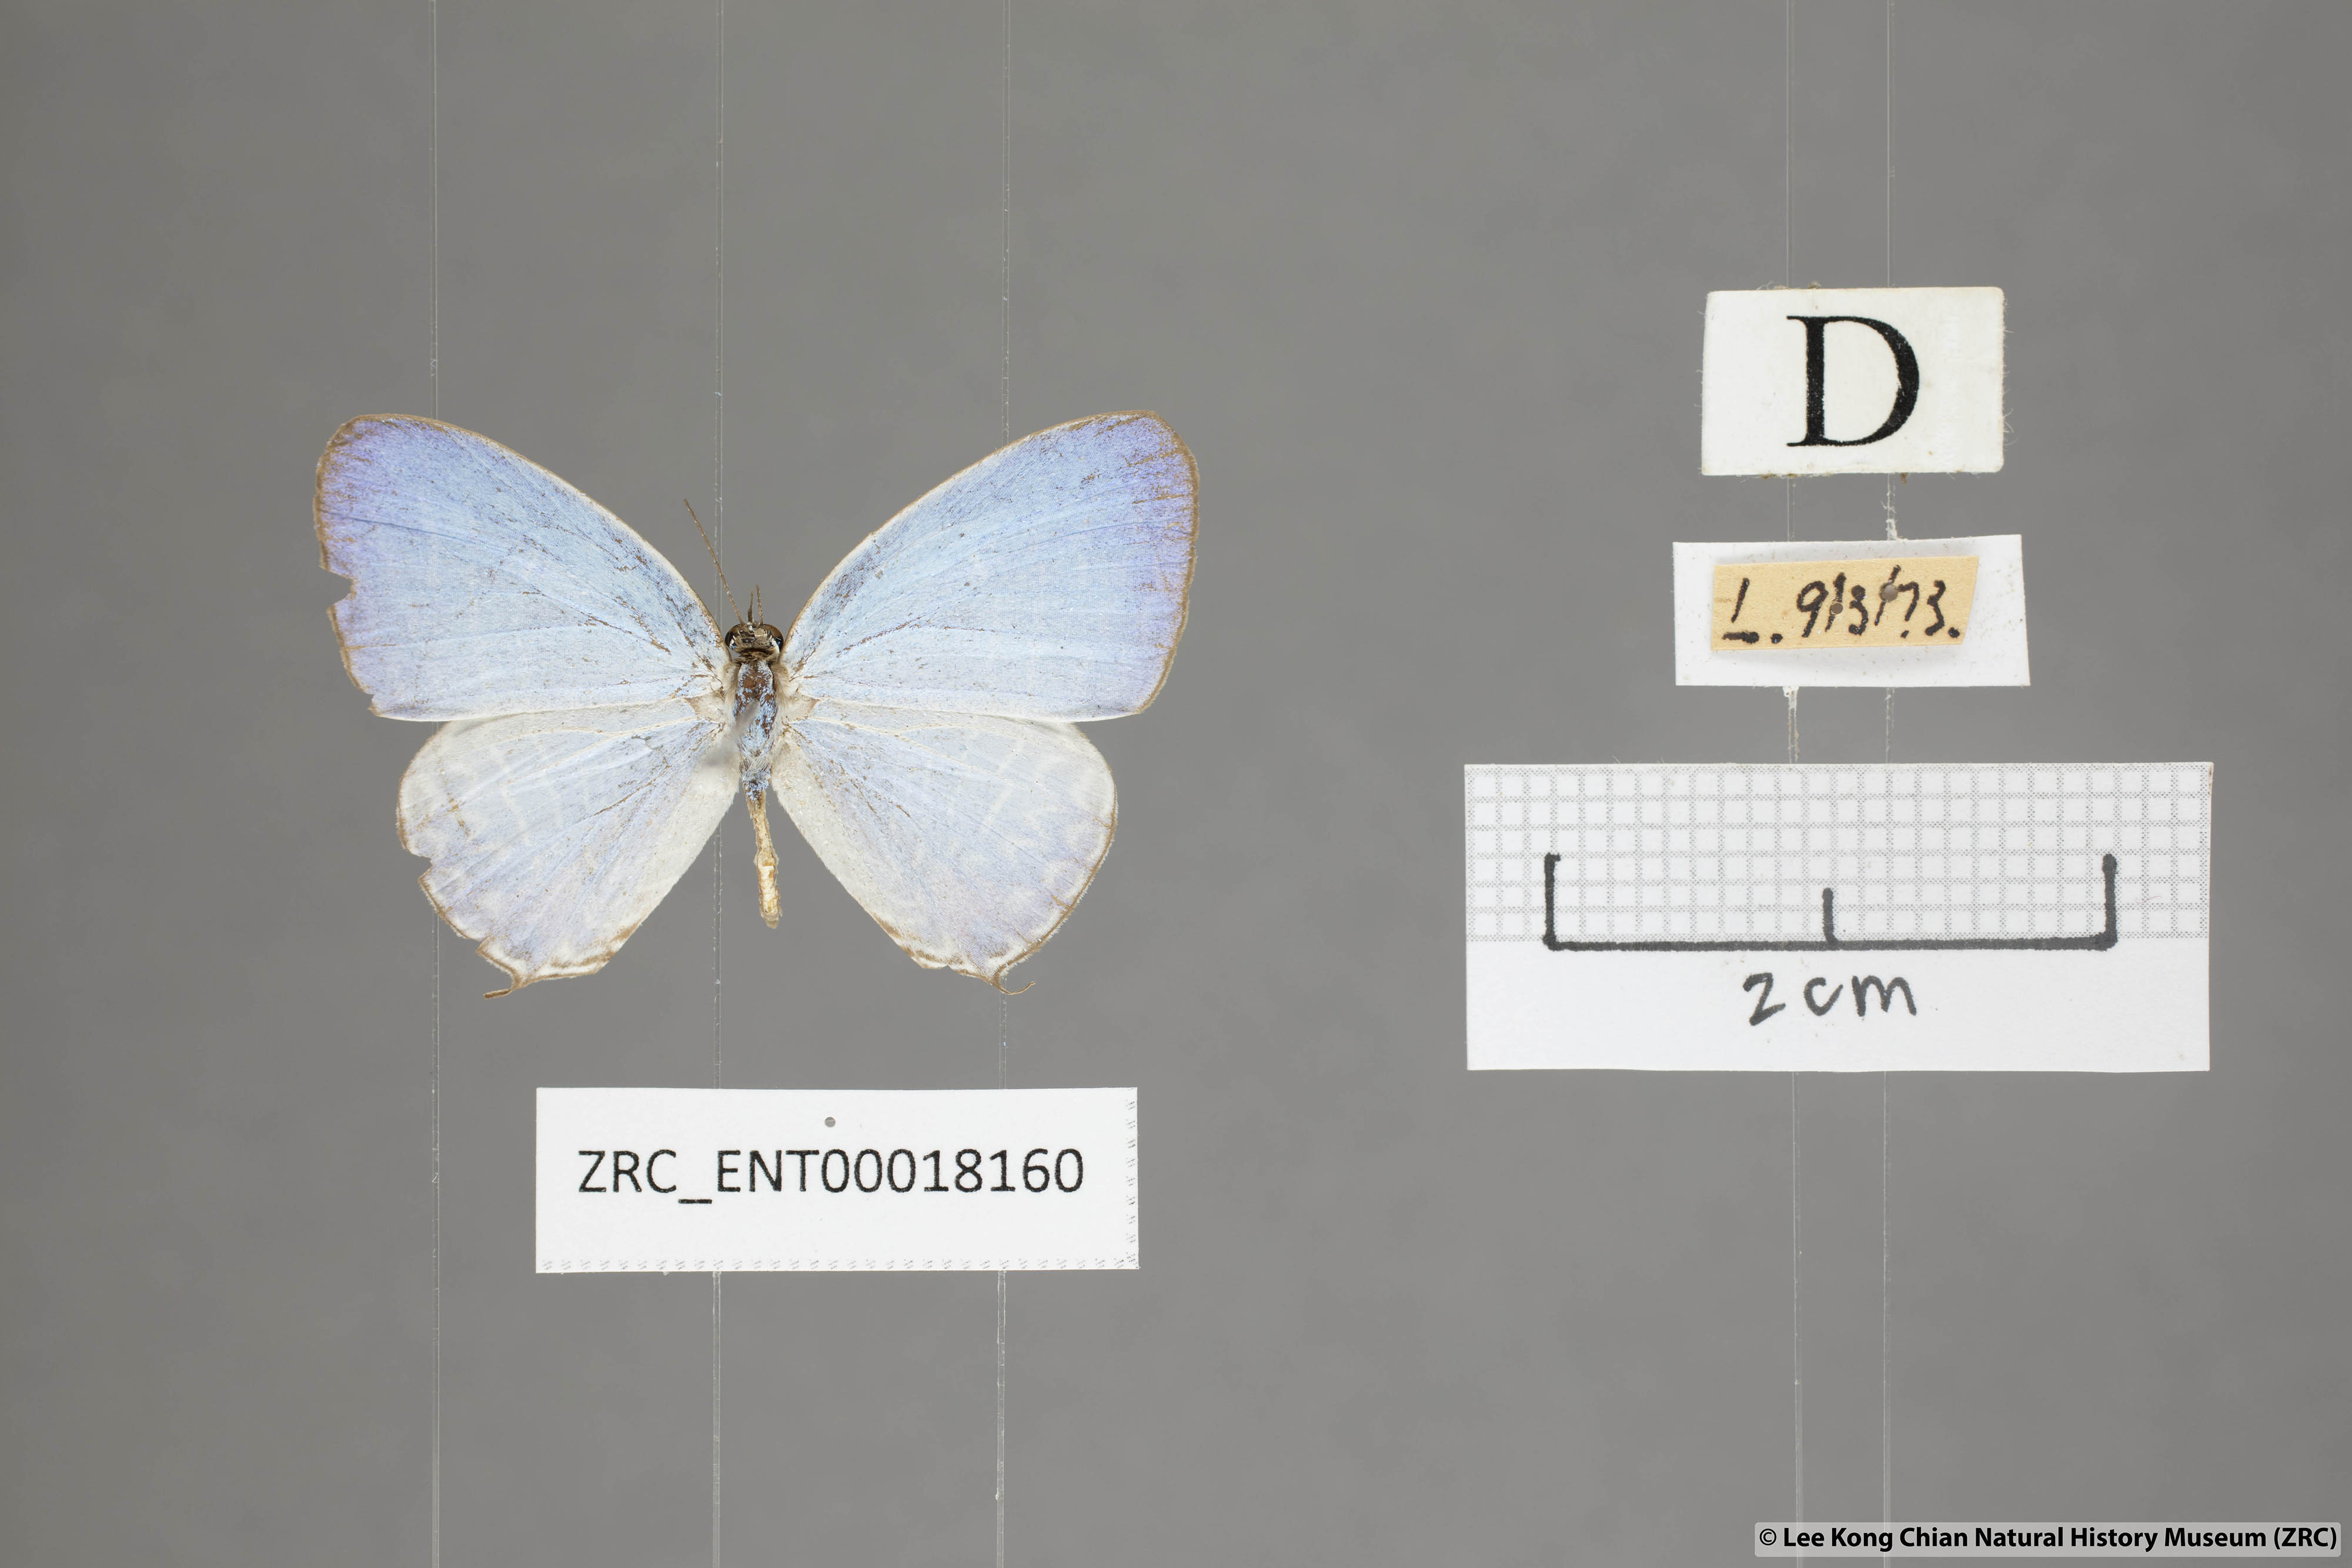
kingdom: Animalia
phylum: Arthropoda
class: Insecta
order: Lepidoptera
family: Lycaenidae
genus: Jamides
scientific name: Jamides
